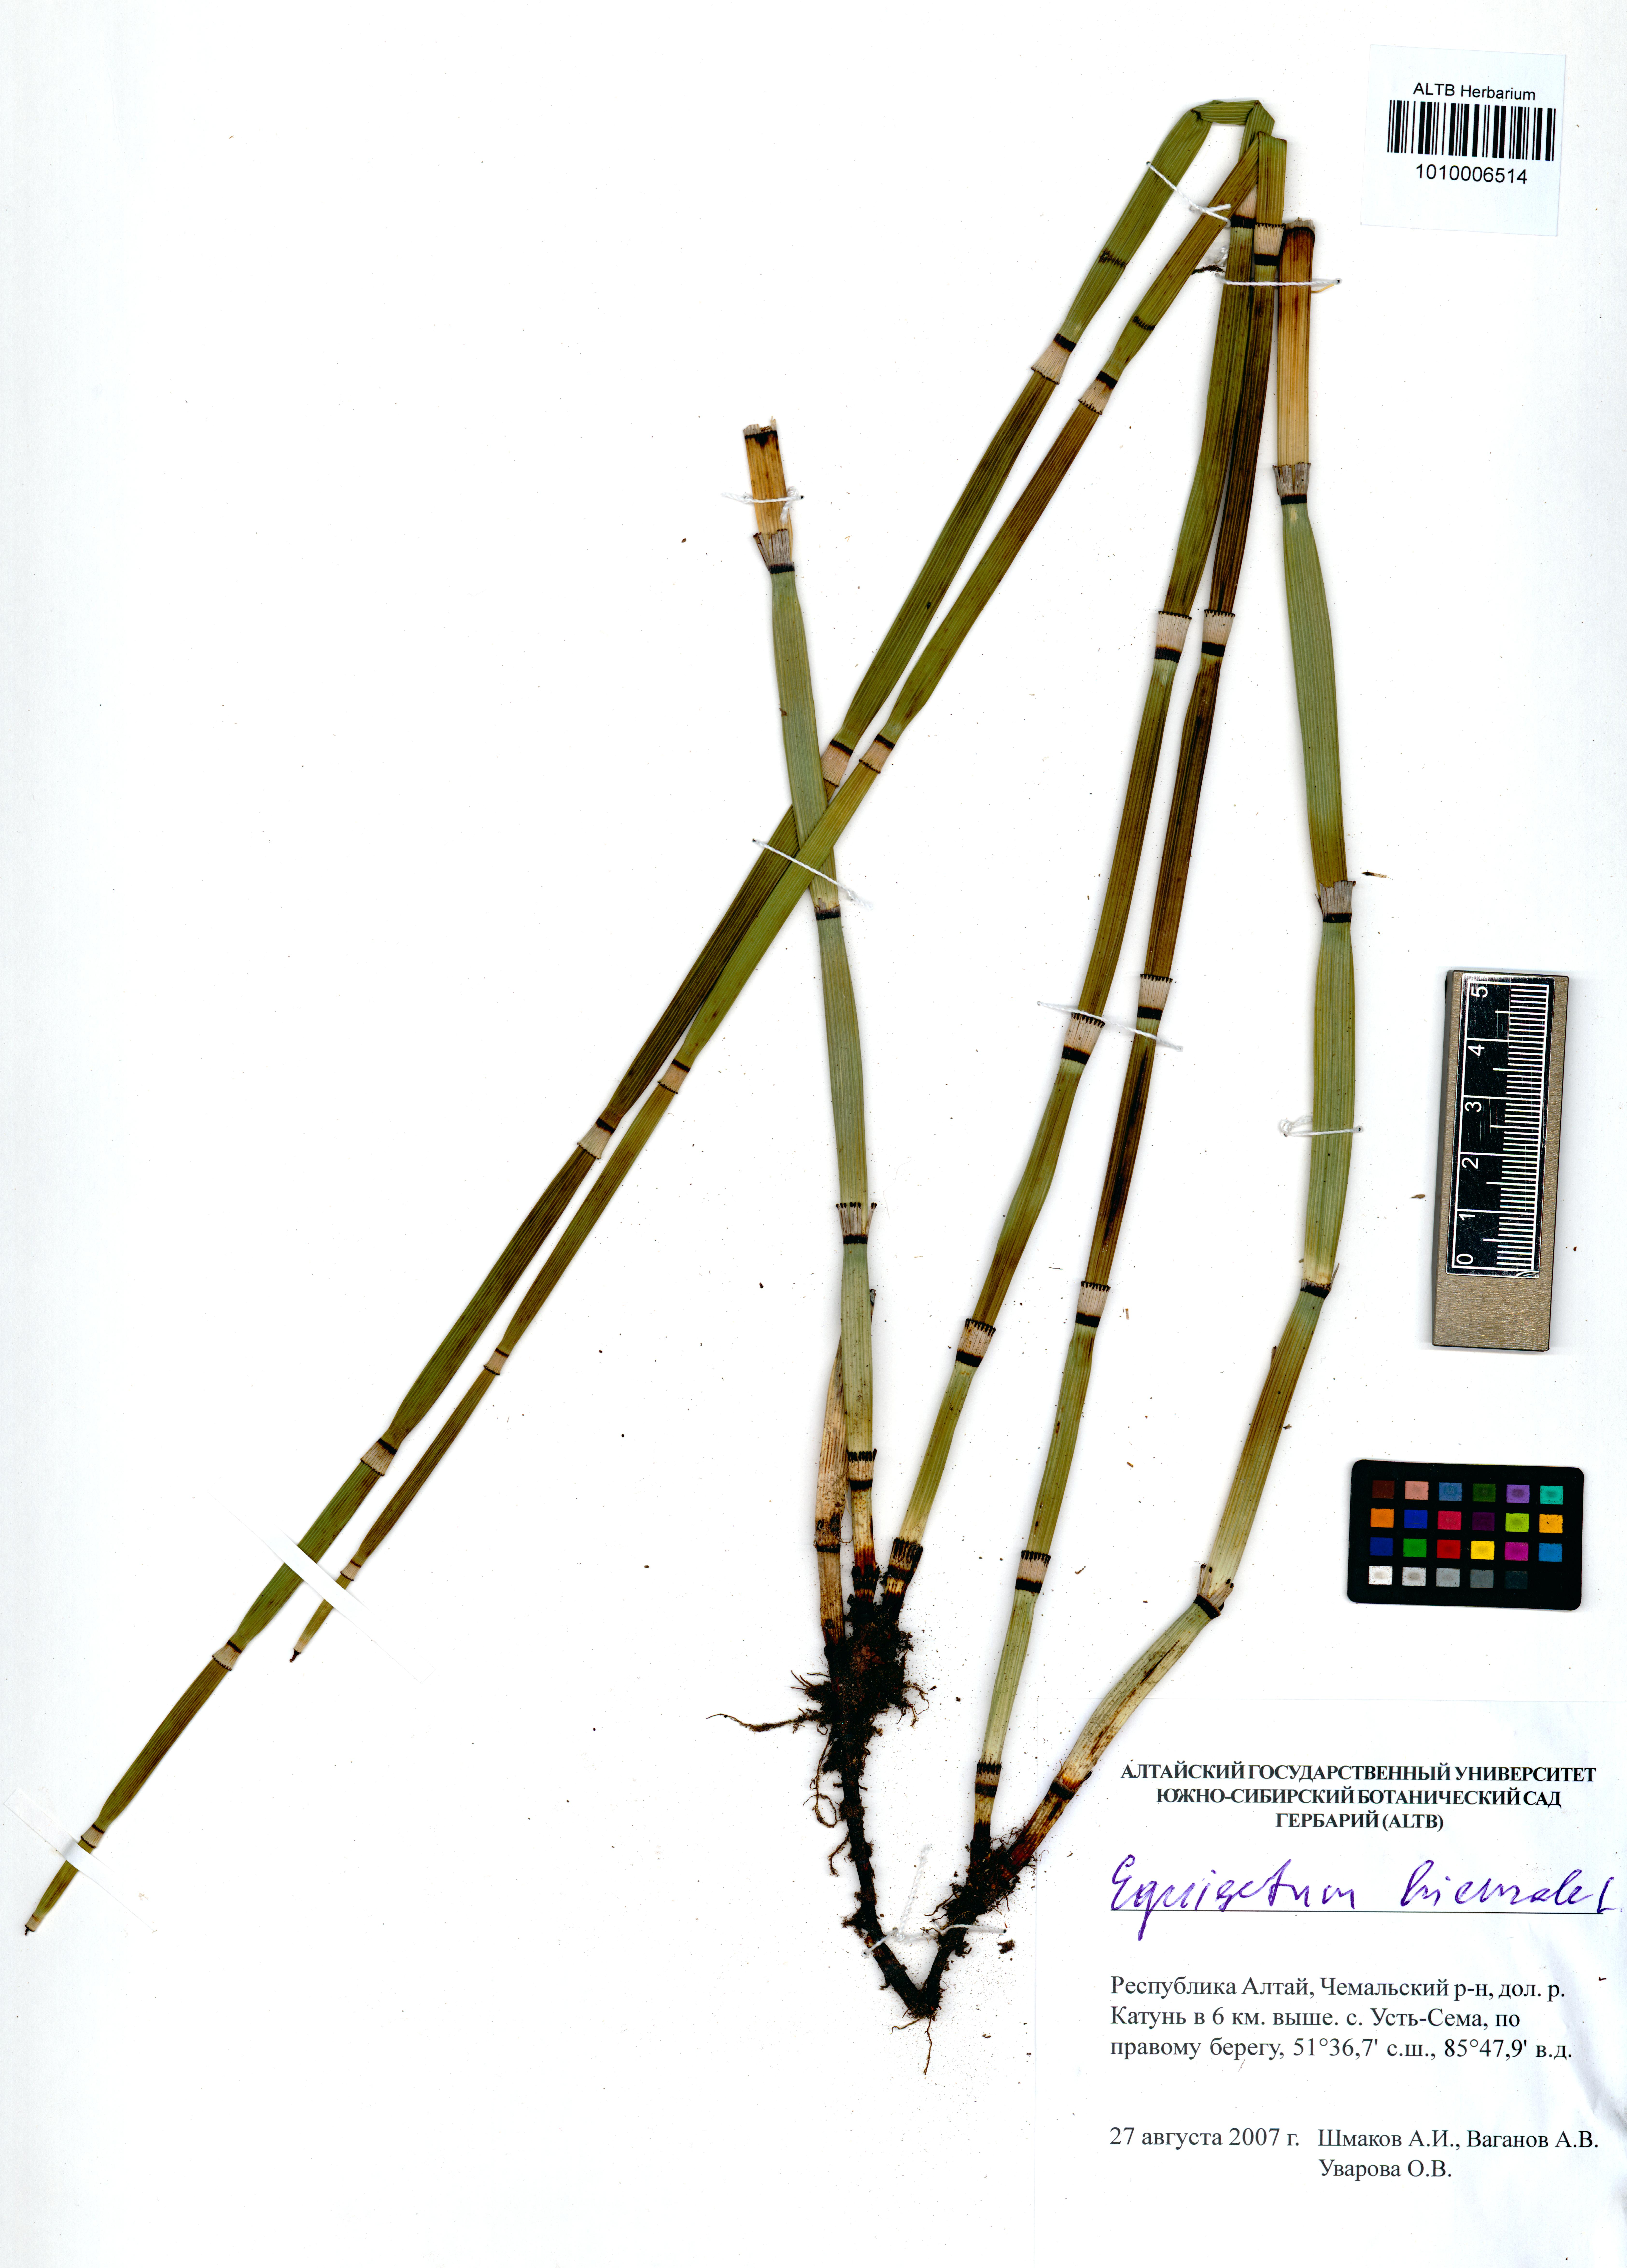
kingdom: Plantae
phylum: Tracheophyta
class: Polypodiopsida
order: Equisetales
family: Equisetaceae
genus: Equisetum
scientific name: Equisetum hyemale
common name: Rough horsetail
